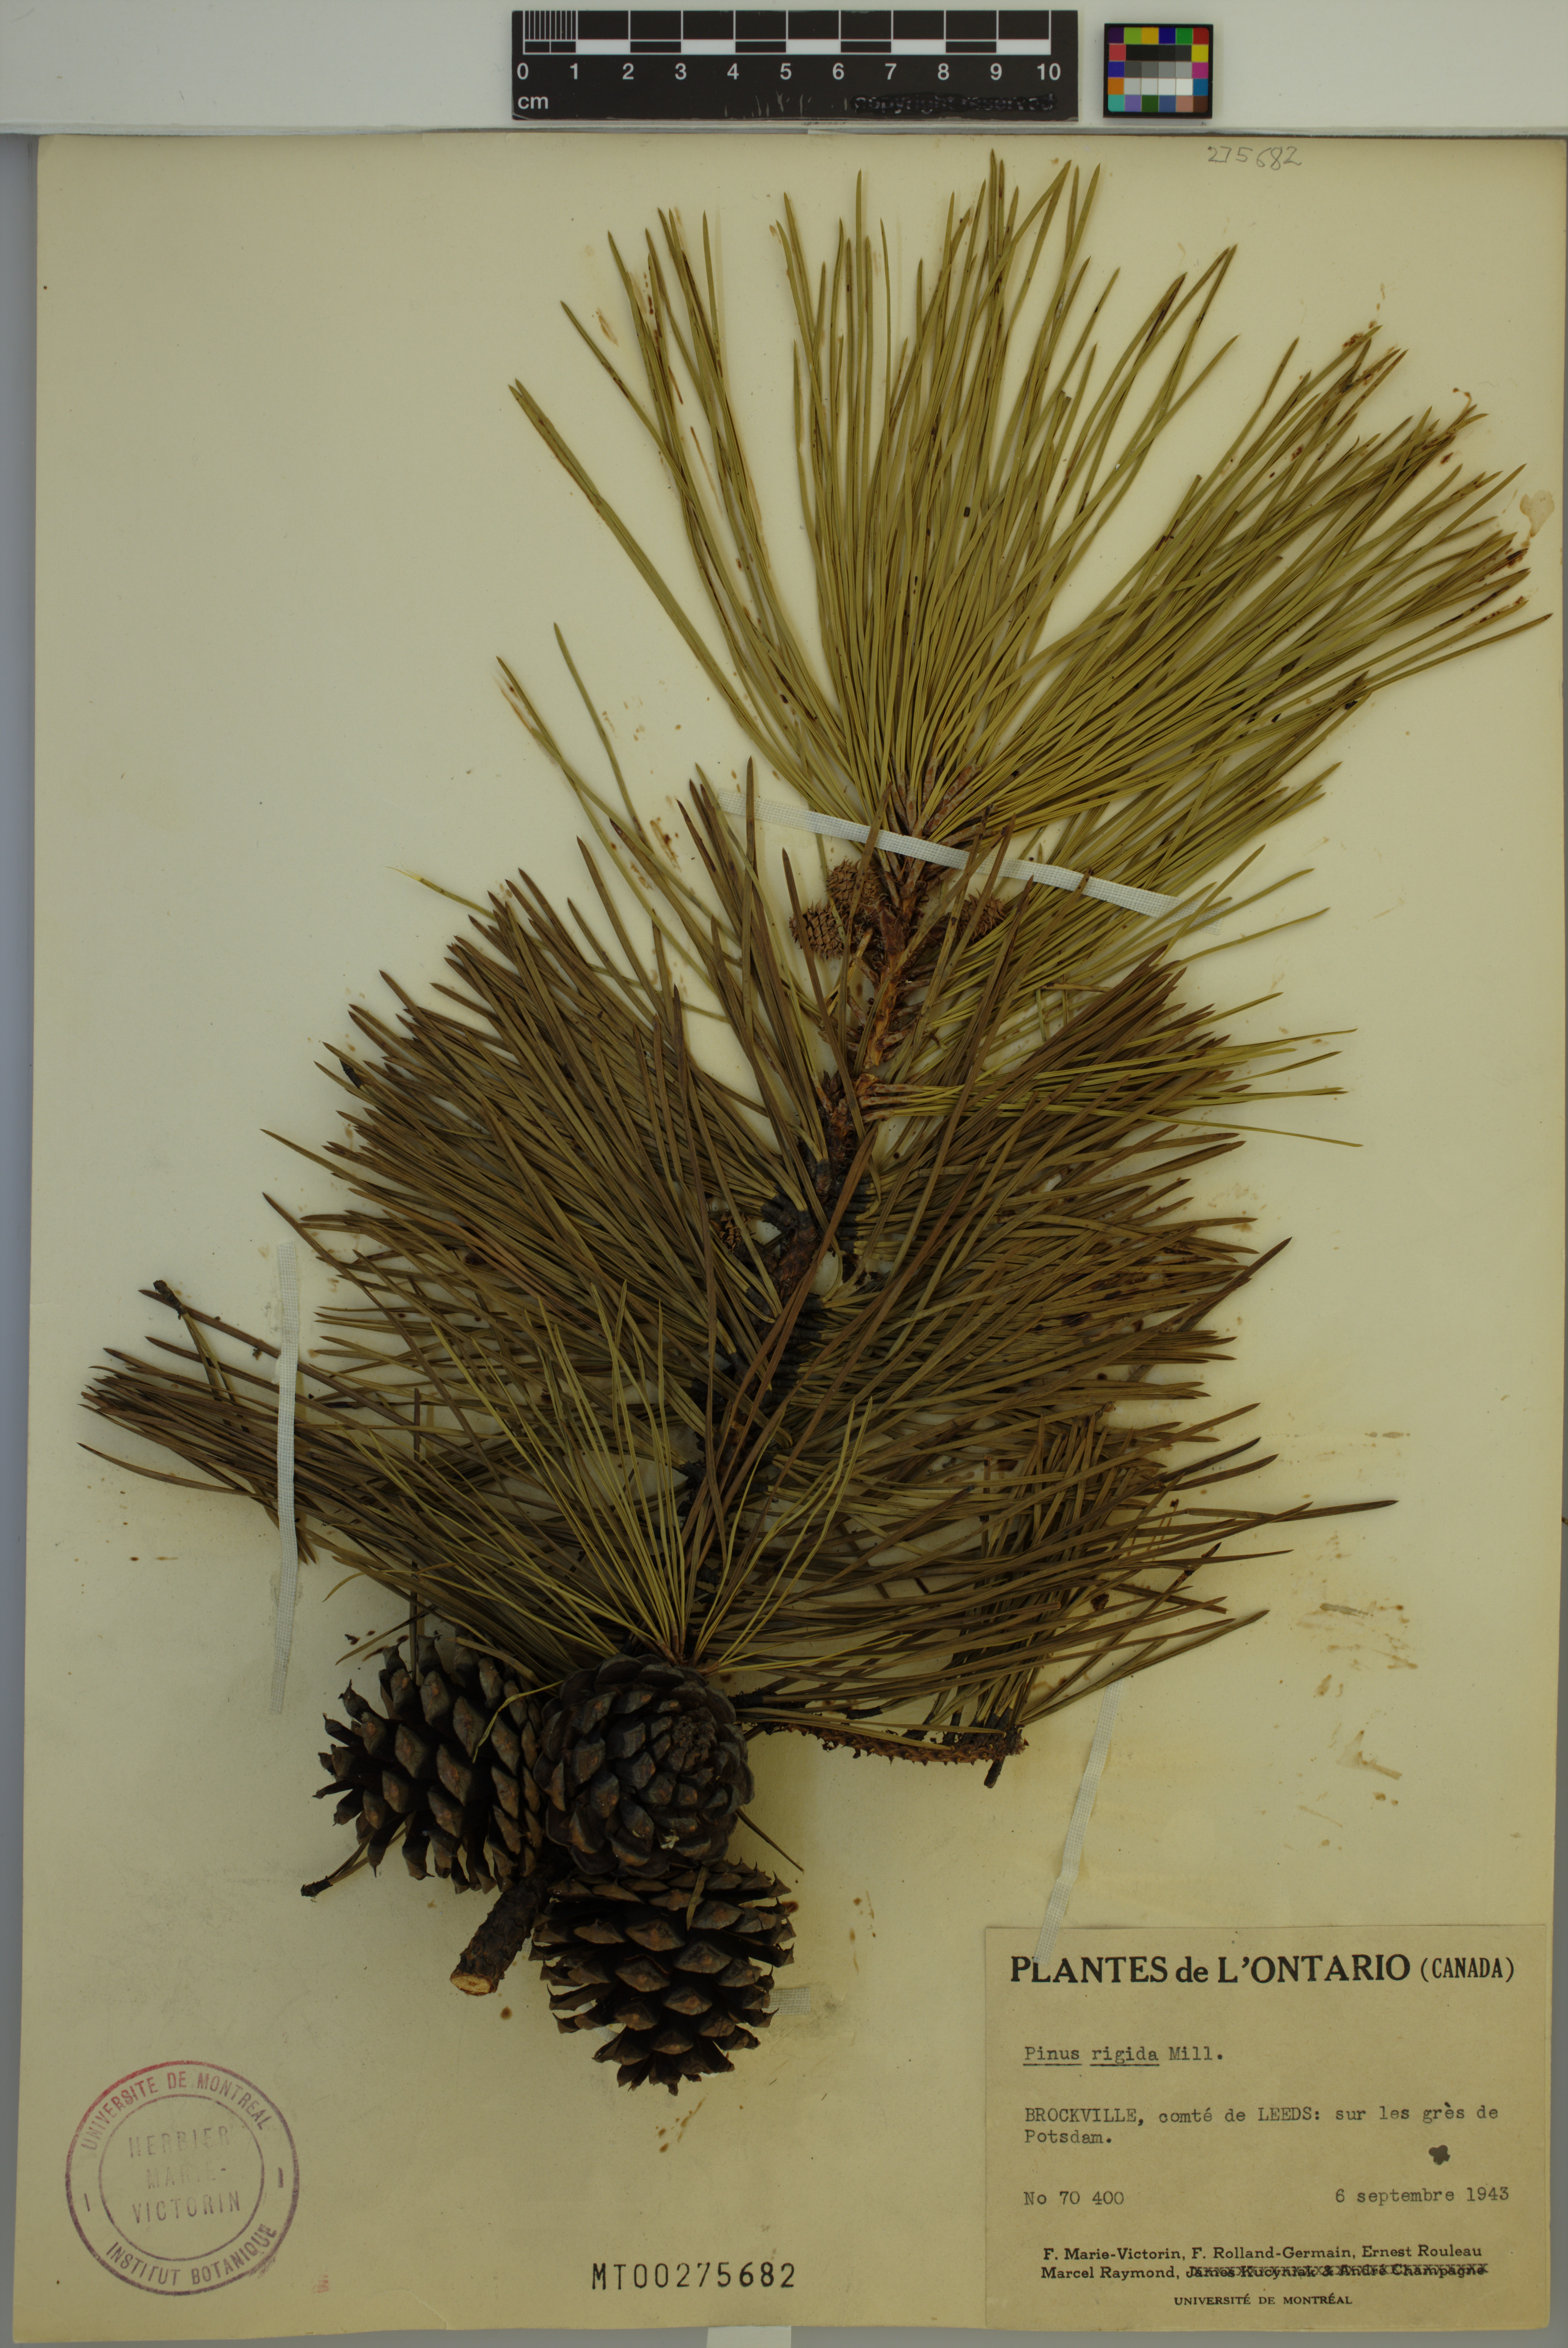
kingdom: Plantae
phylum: Tracheophyta
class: Pinopsida
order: Pinales
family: Pinaceae
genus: Pinus
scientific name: Pinus rigida
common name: Pitch pine
